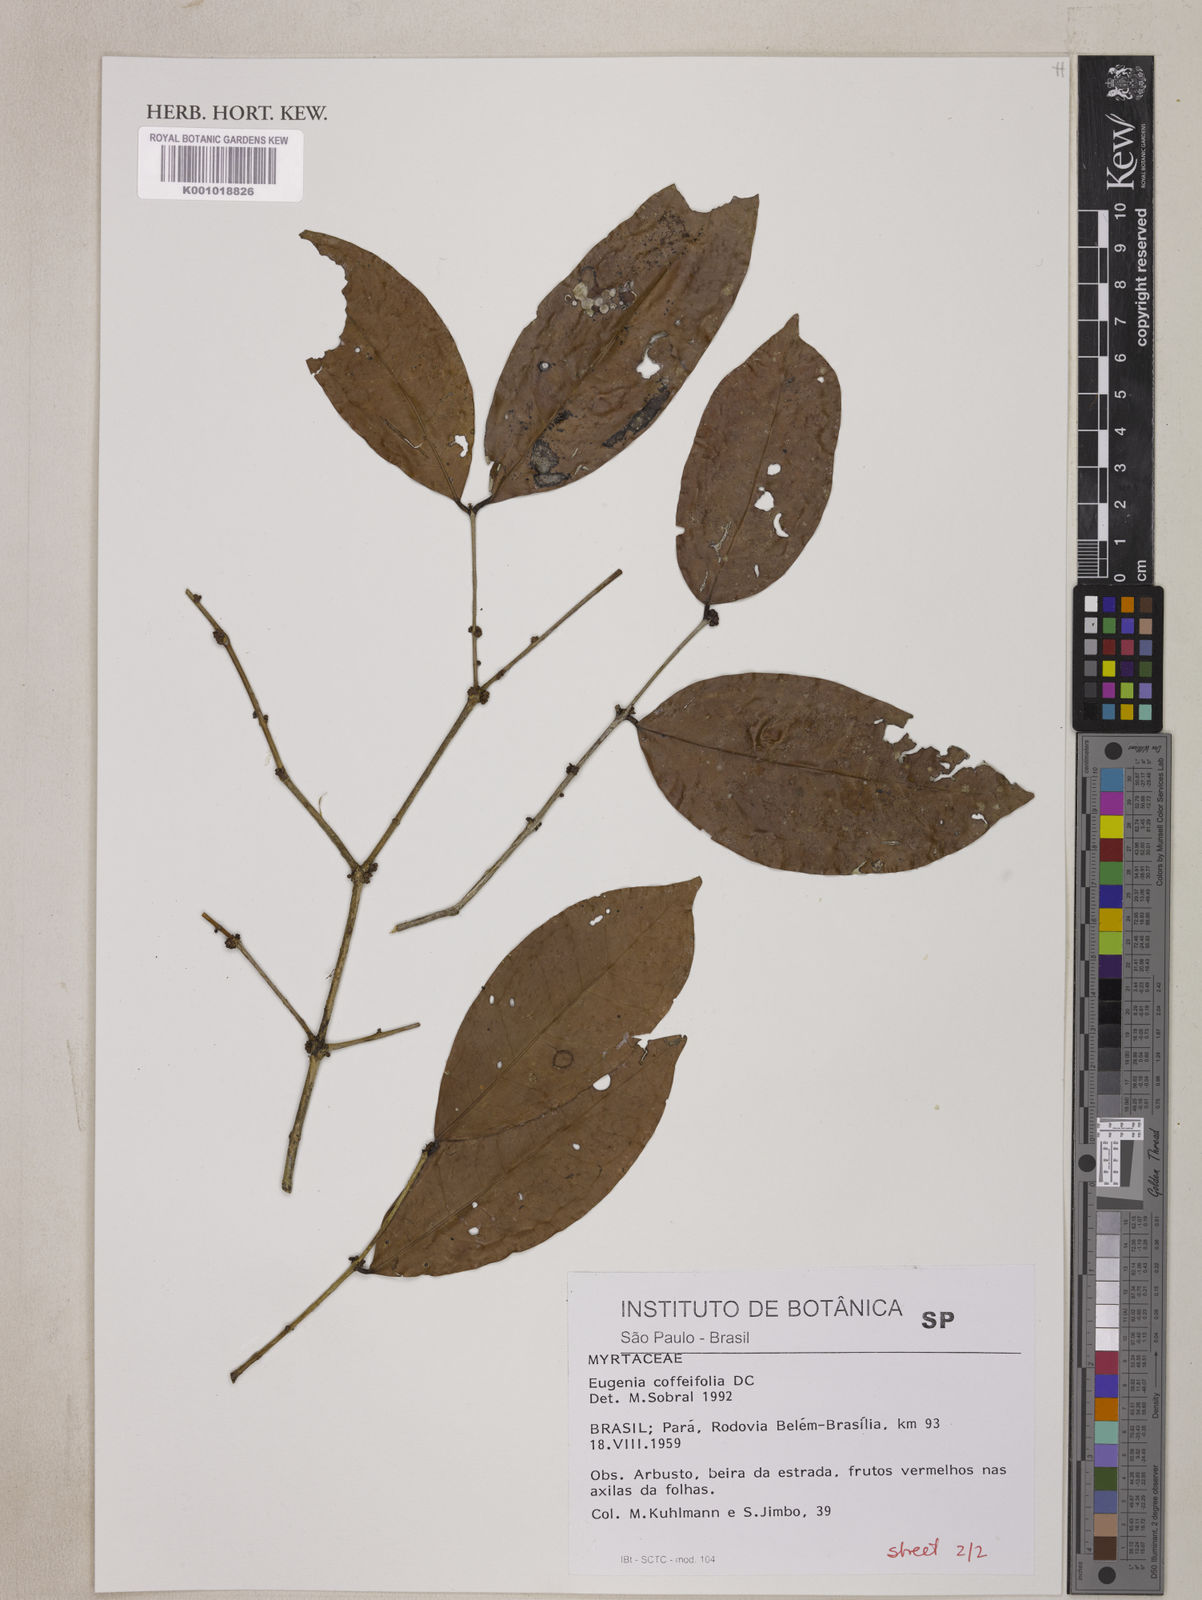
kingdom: Plantae
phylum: Tracheophyta
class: Magnoliopsida
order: Myrtales
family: Myrtaceae
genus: Eugenia
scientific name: Eugenia coffeifolia
